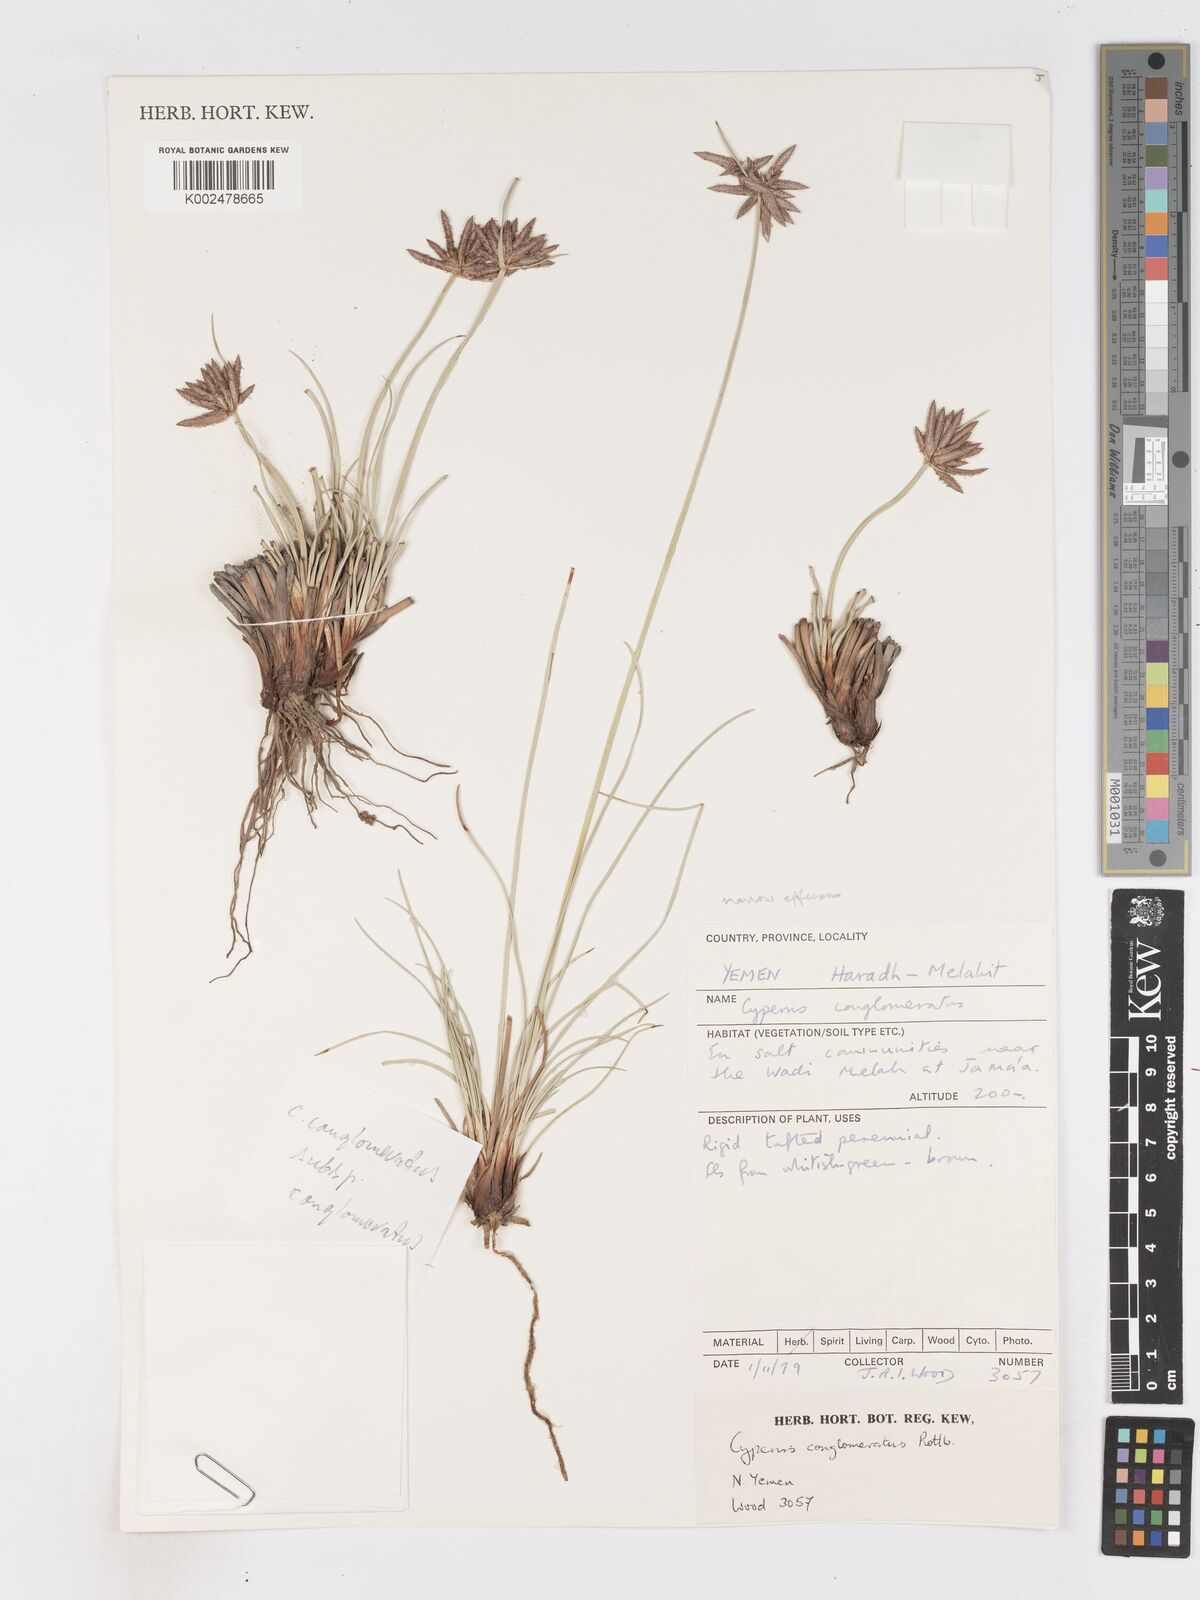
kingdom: Plantae
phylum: Tracheophyta
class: Liliopsida
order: Poales
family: Cyperaceae
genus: Cyperus
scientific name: Cyperus conglomeratus
